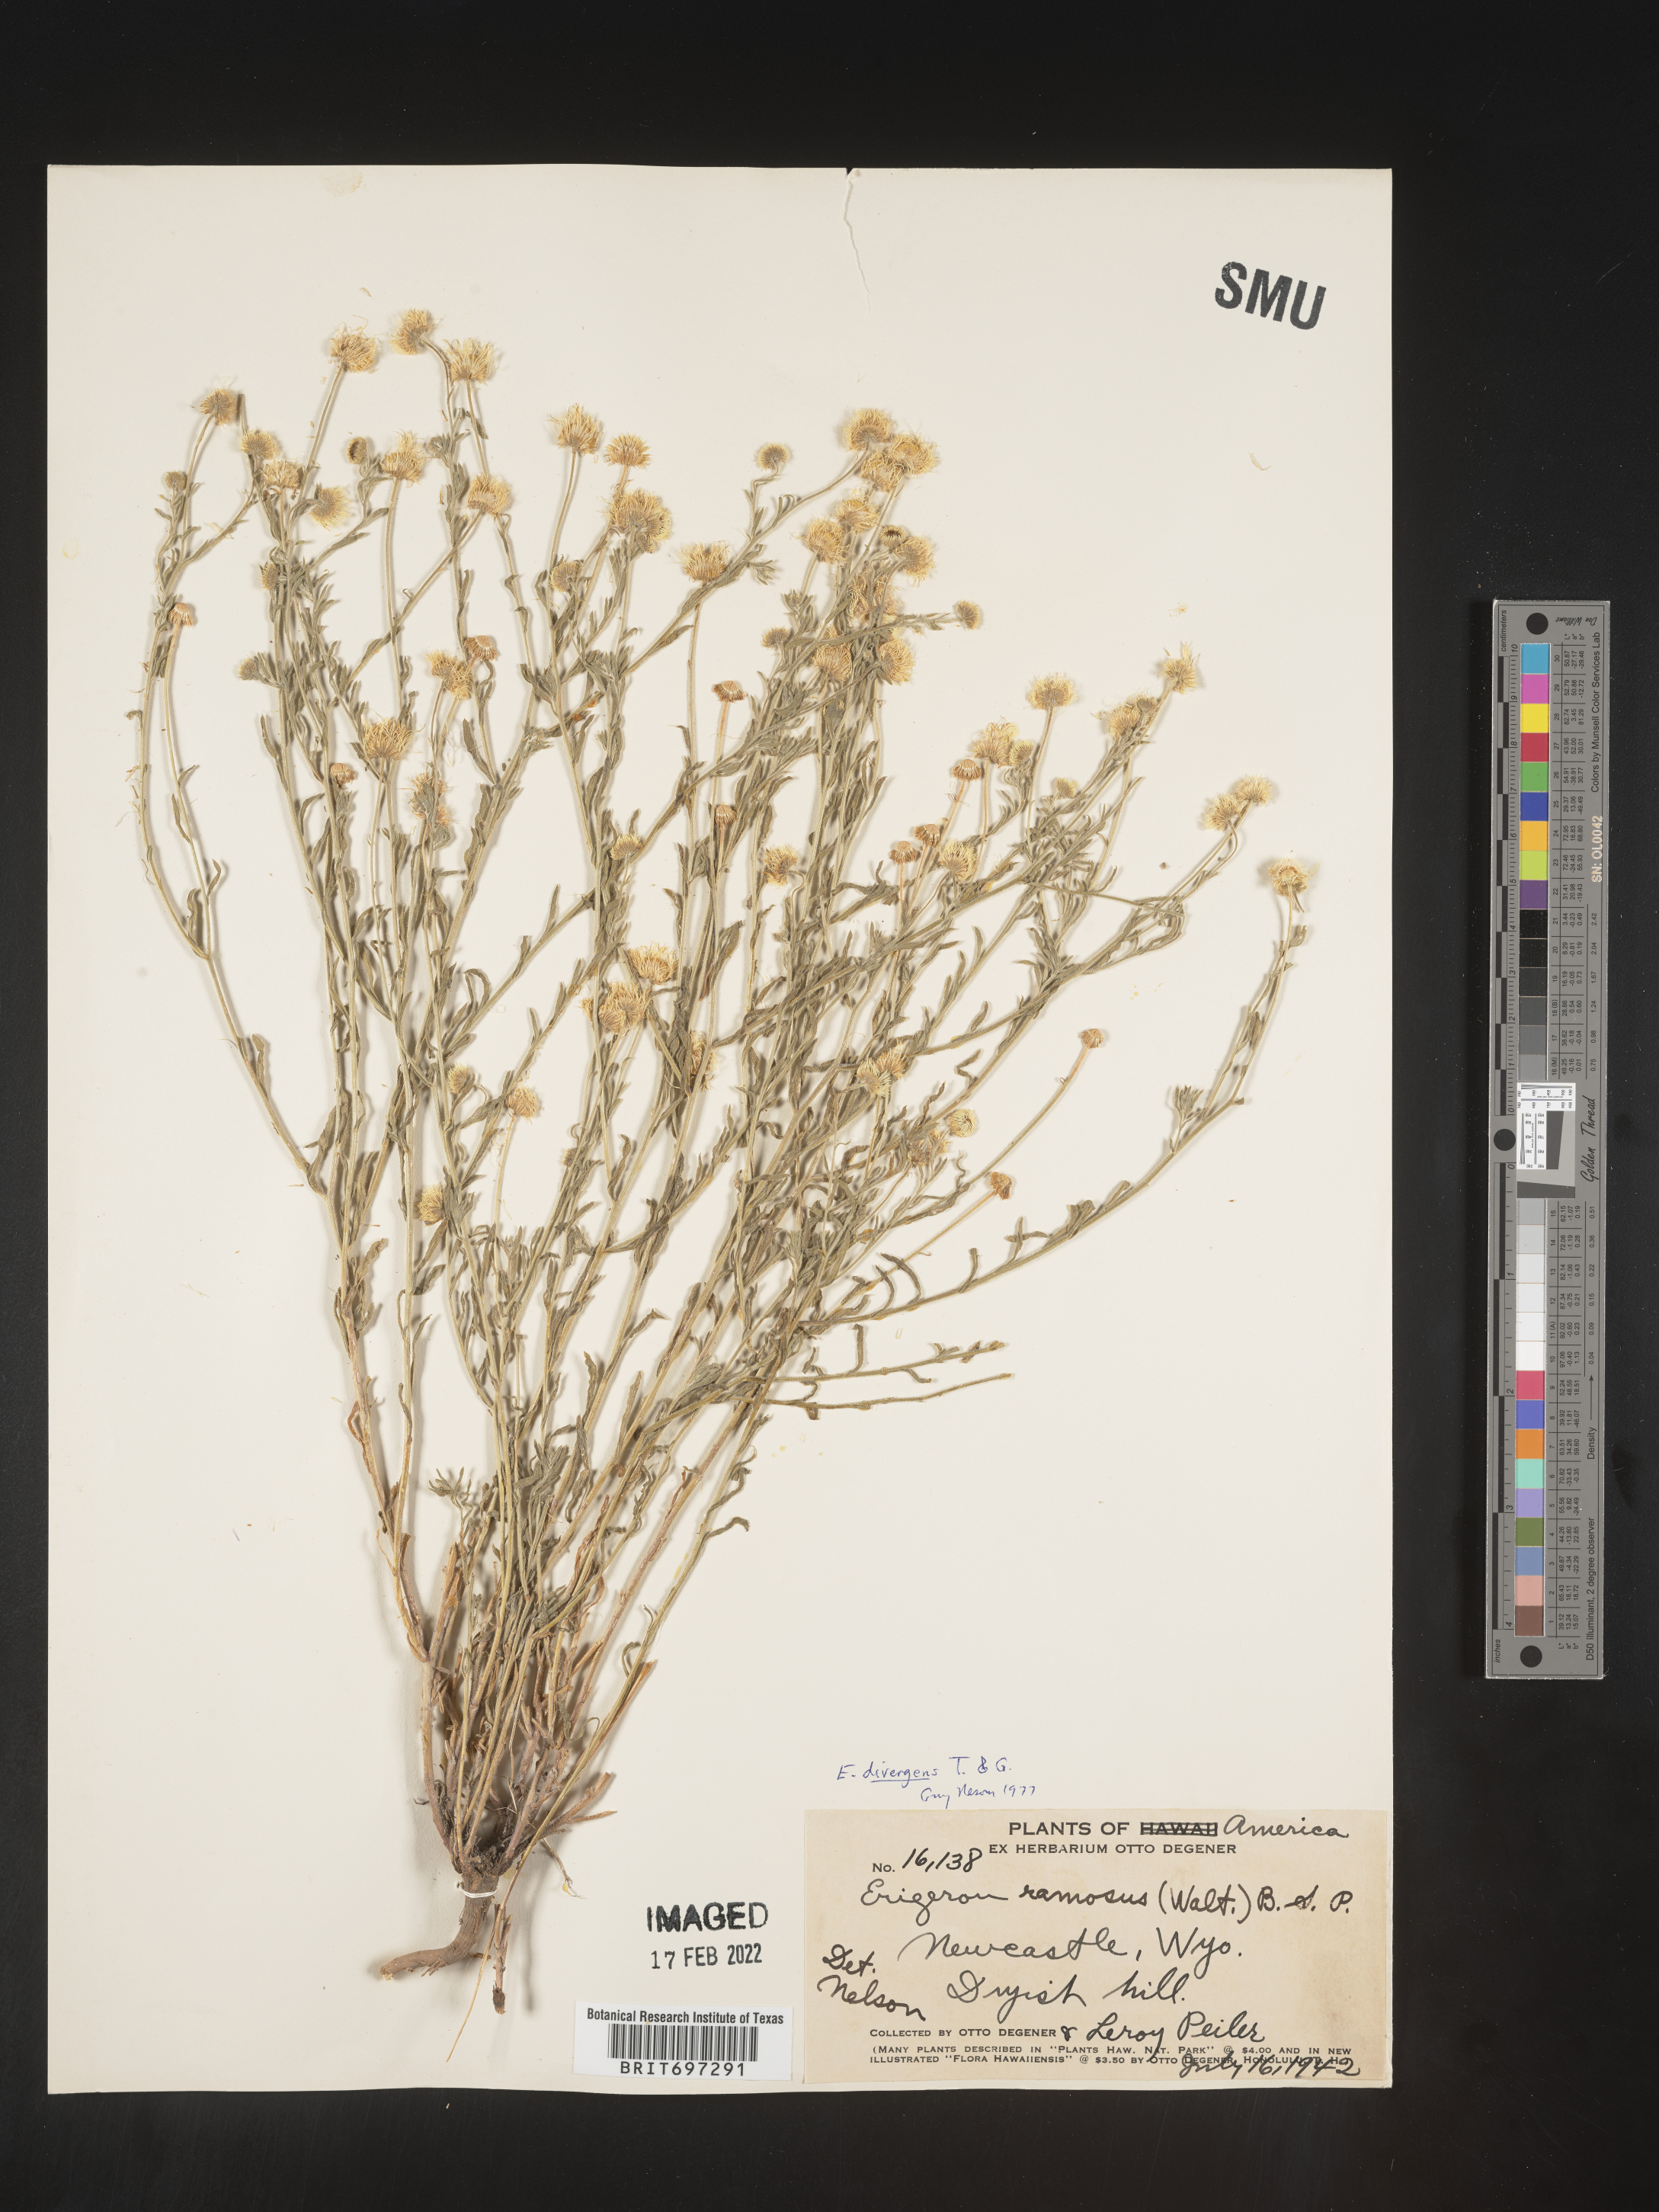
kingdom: Plantae
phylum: Tracheophyta
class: Magnoliopsida
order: Asterales
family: Asteraceae
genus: Erigeron
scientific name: Erigeron divergens
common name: Diffuse fleabane
